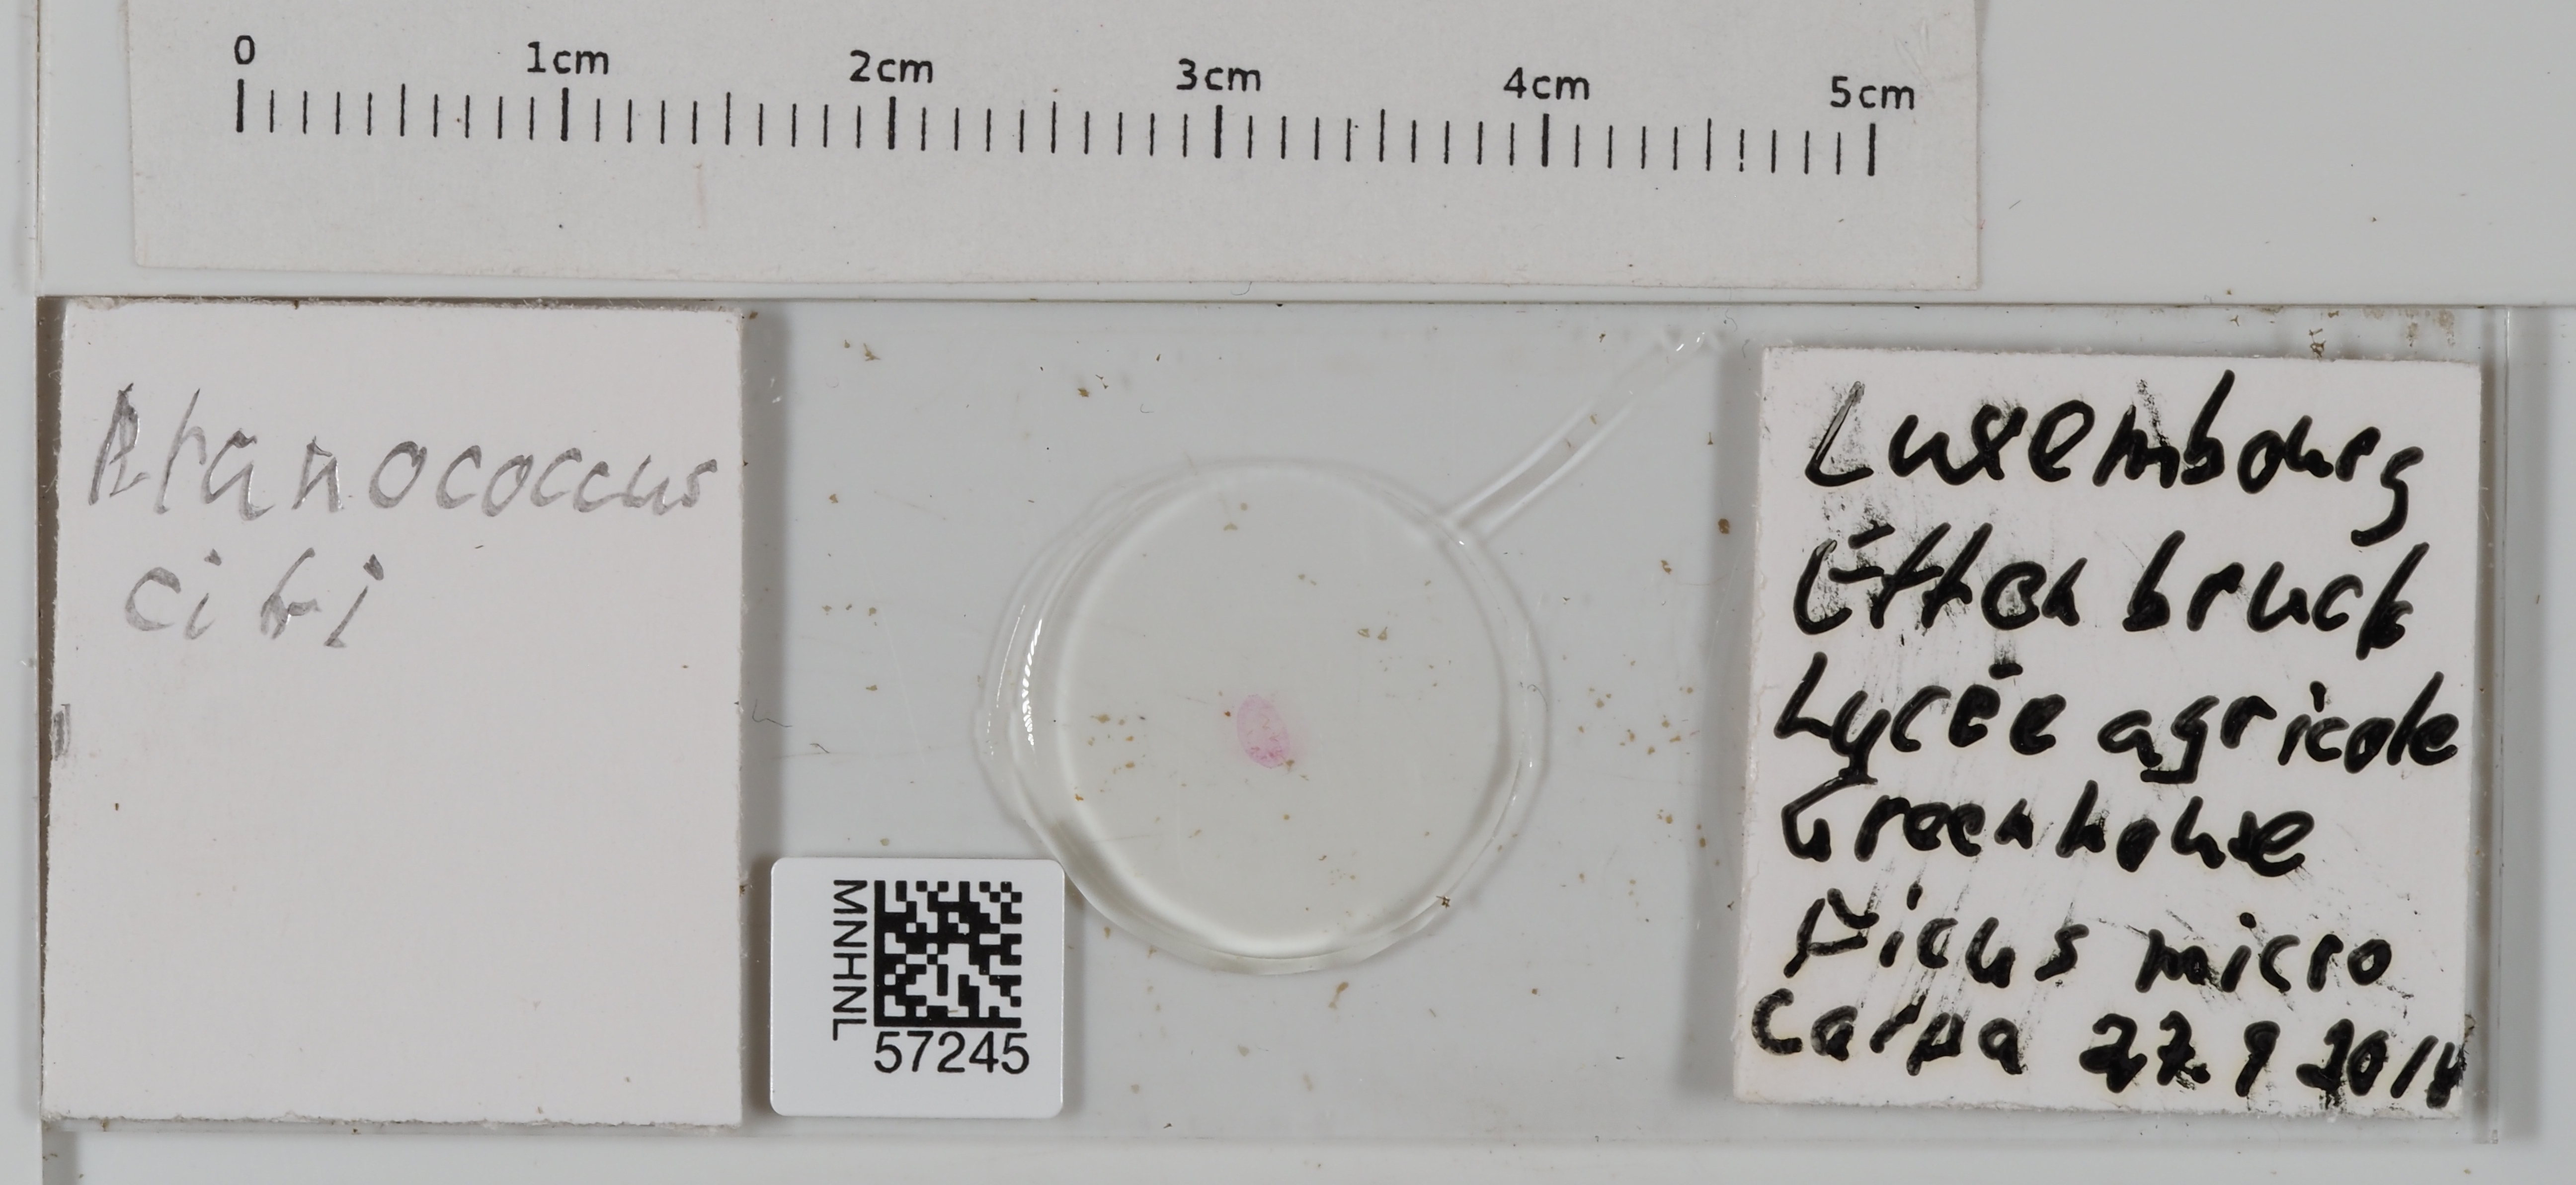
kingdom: Animalia
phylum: Arthropoda
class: Insecta
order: Hemiptera
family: Pseudococcidae
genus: Planococcus
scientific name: Planococcus citri
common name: Citrus mealybug
